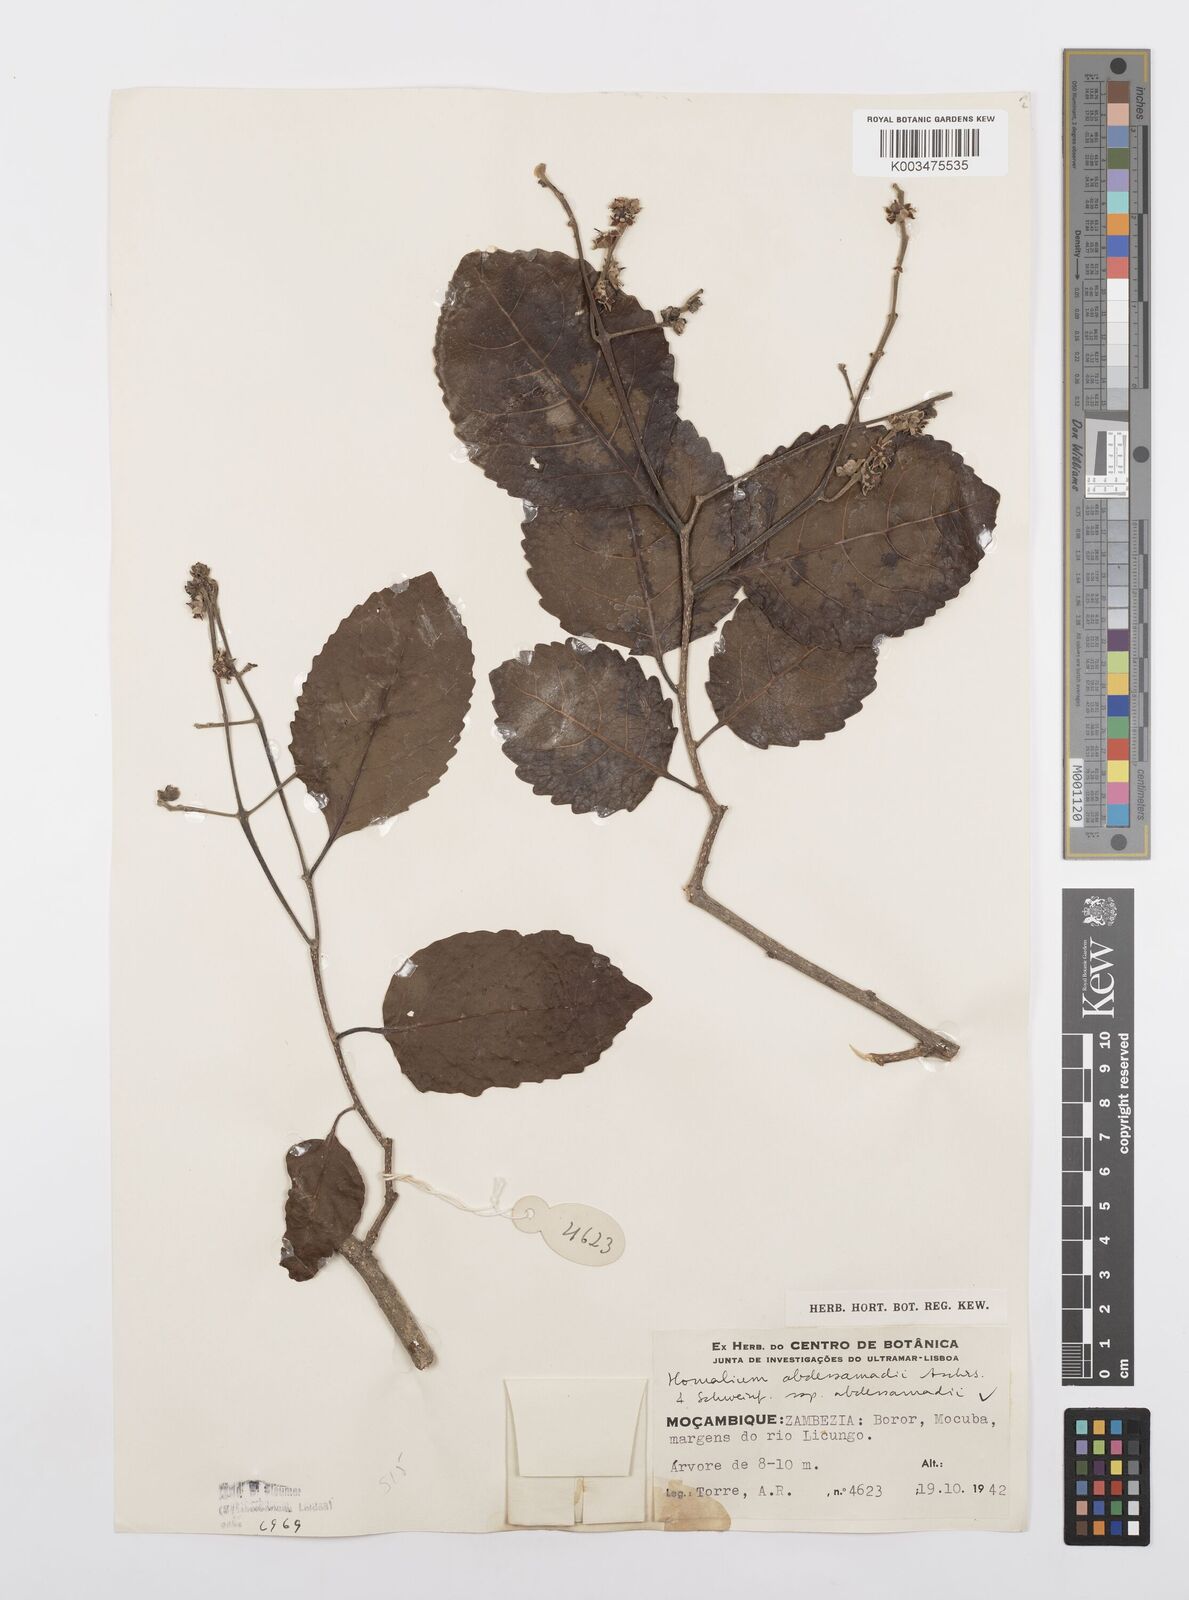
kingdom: Plantae
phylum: Tracheophyta
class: Magnoliopsida
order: Malpighiales
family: Salicaceae
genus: Homalium
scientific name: Homalium abdessammadii
